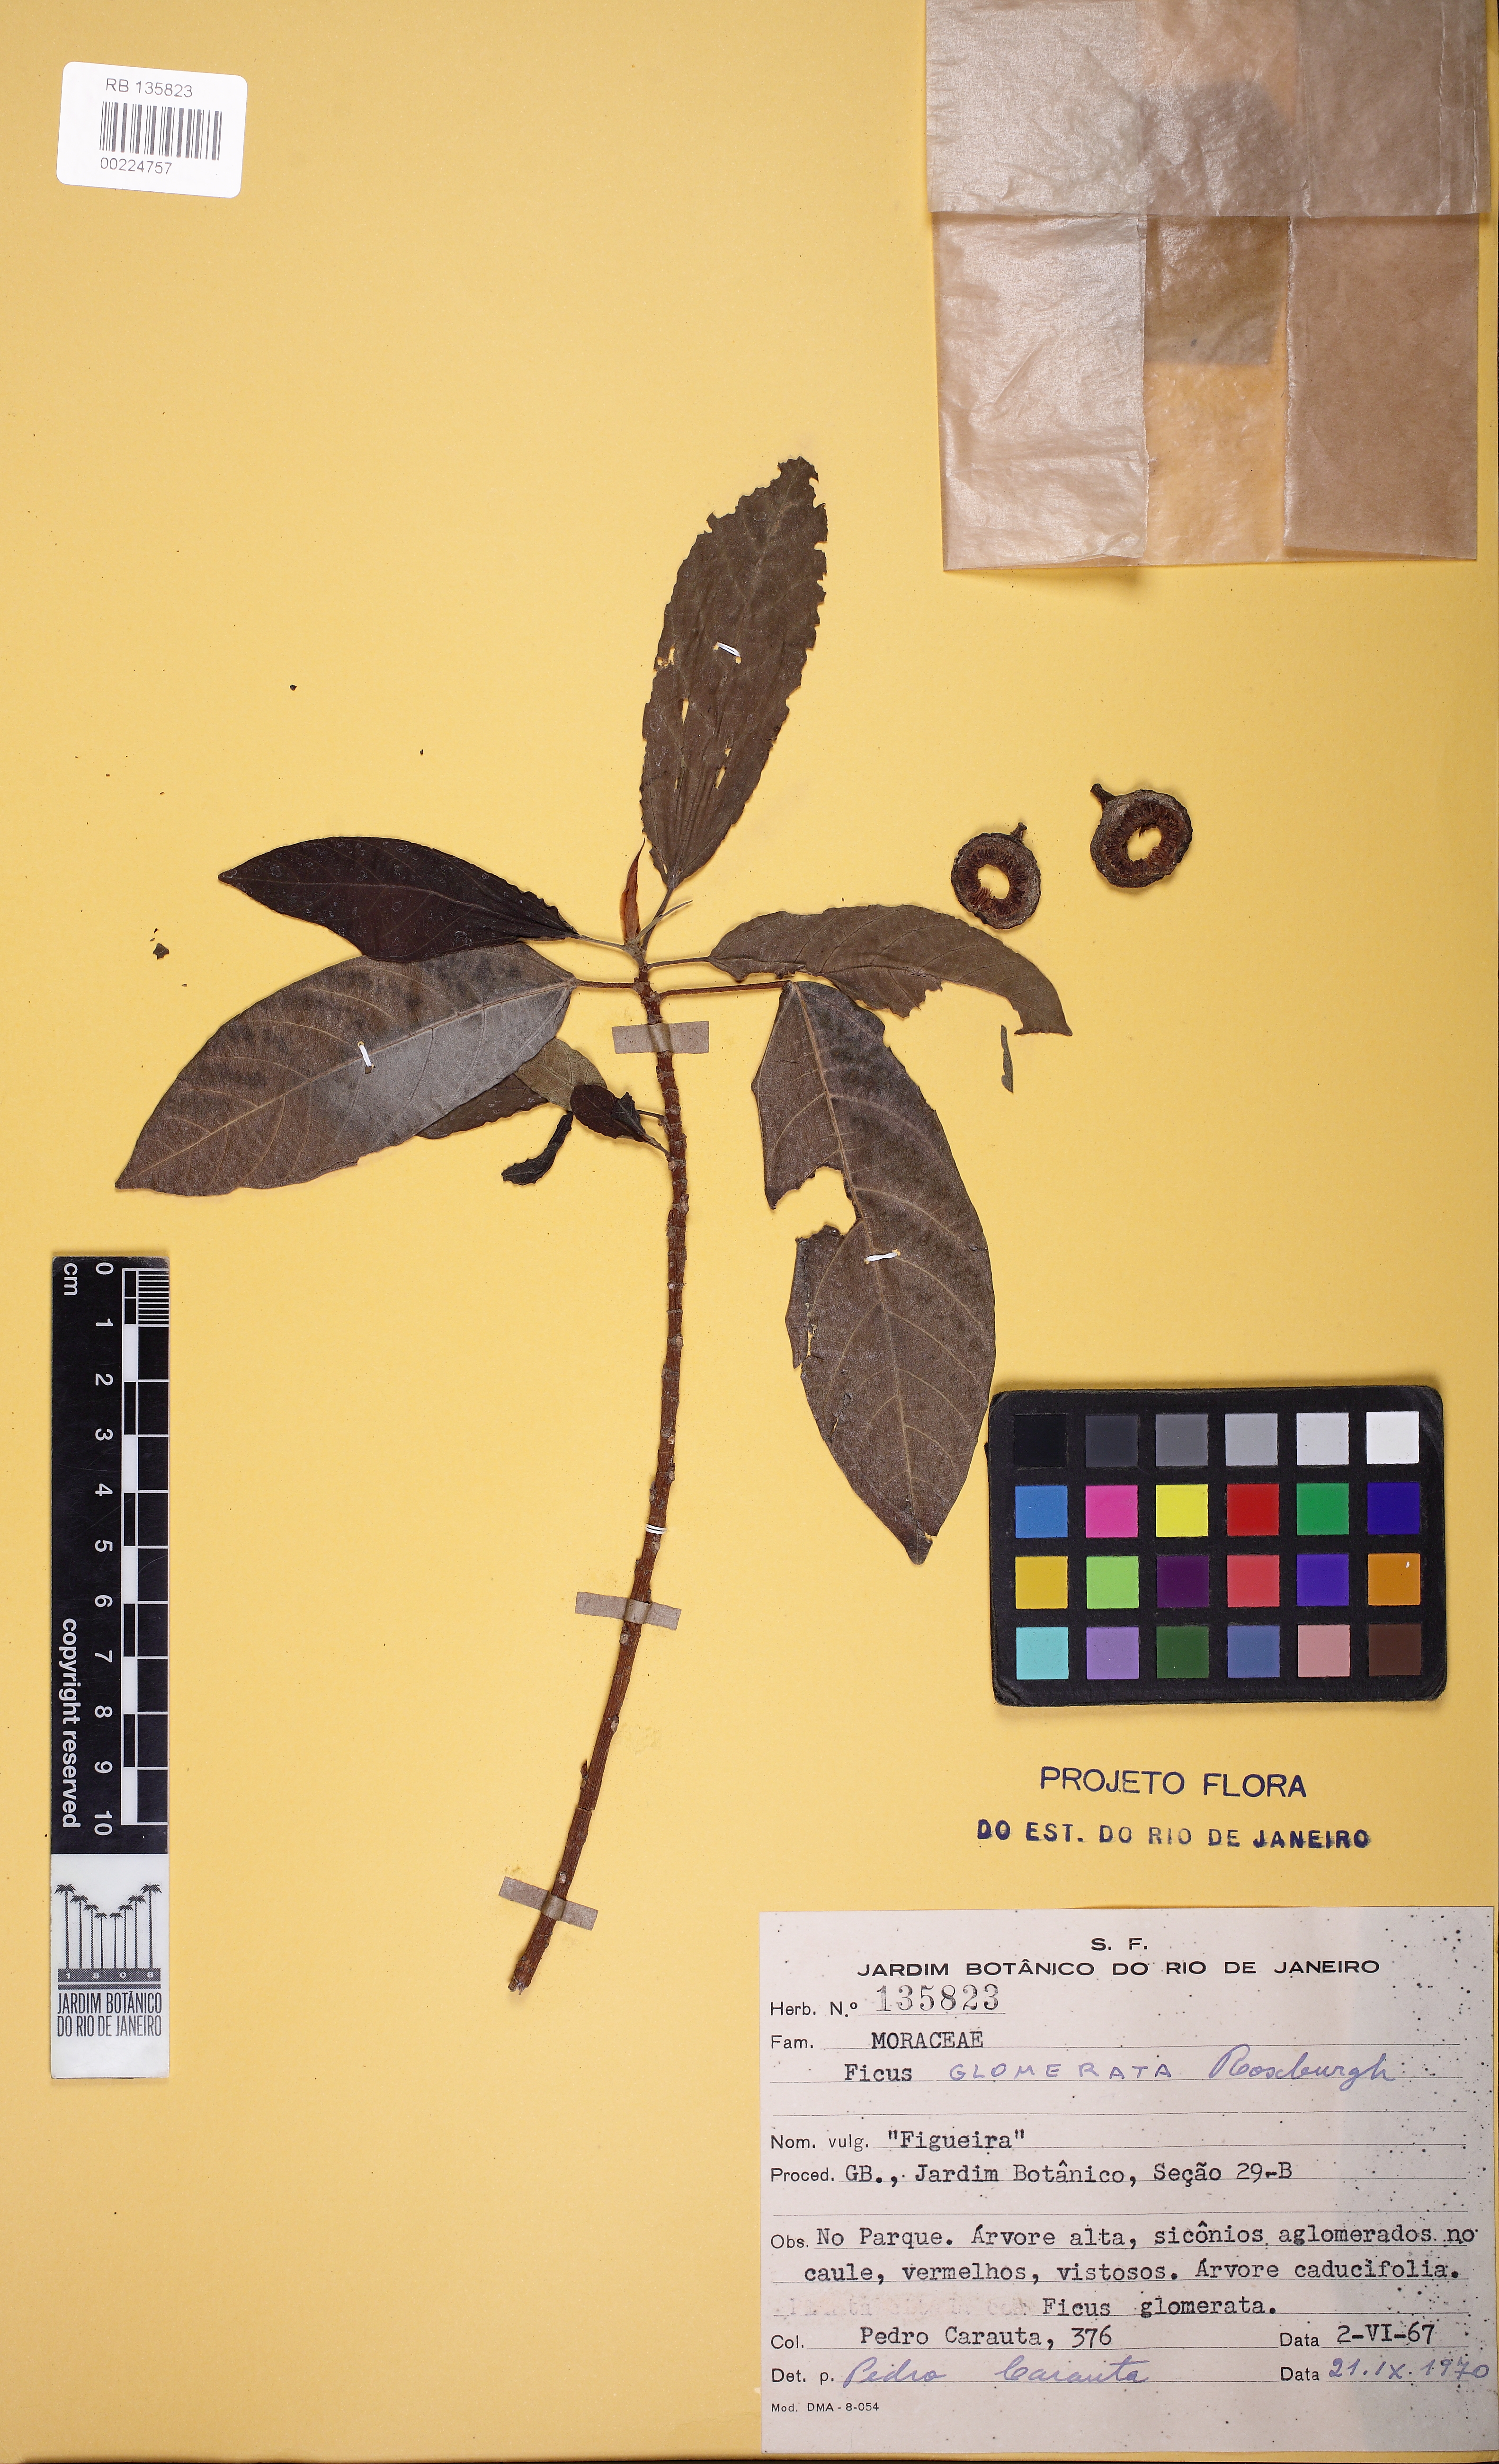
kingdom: Plantae
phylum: Tracheophyta
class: Magnoliopsida
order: Rosales
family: Moraceae
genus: Ficus
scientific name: Ficus racemosa
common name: Cluster fig
